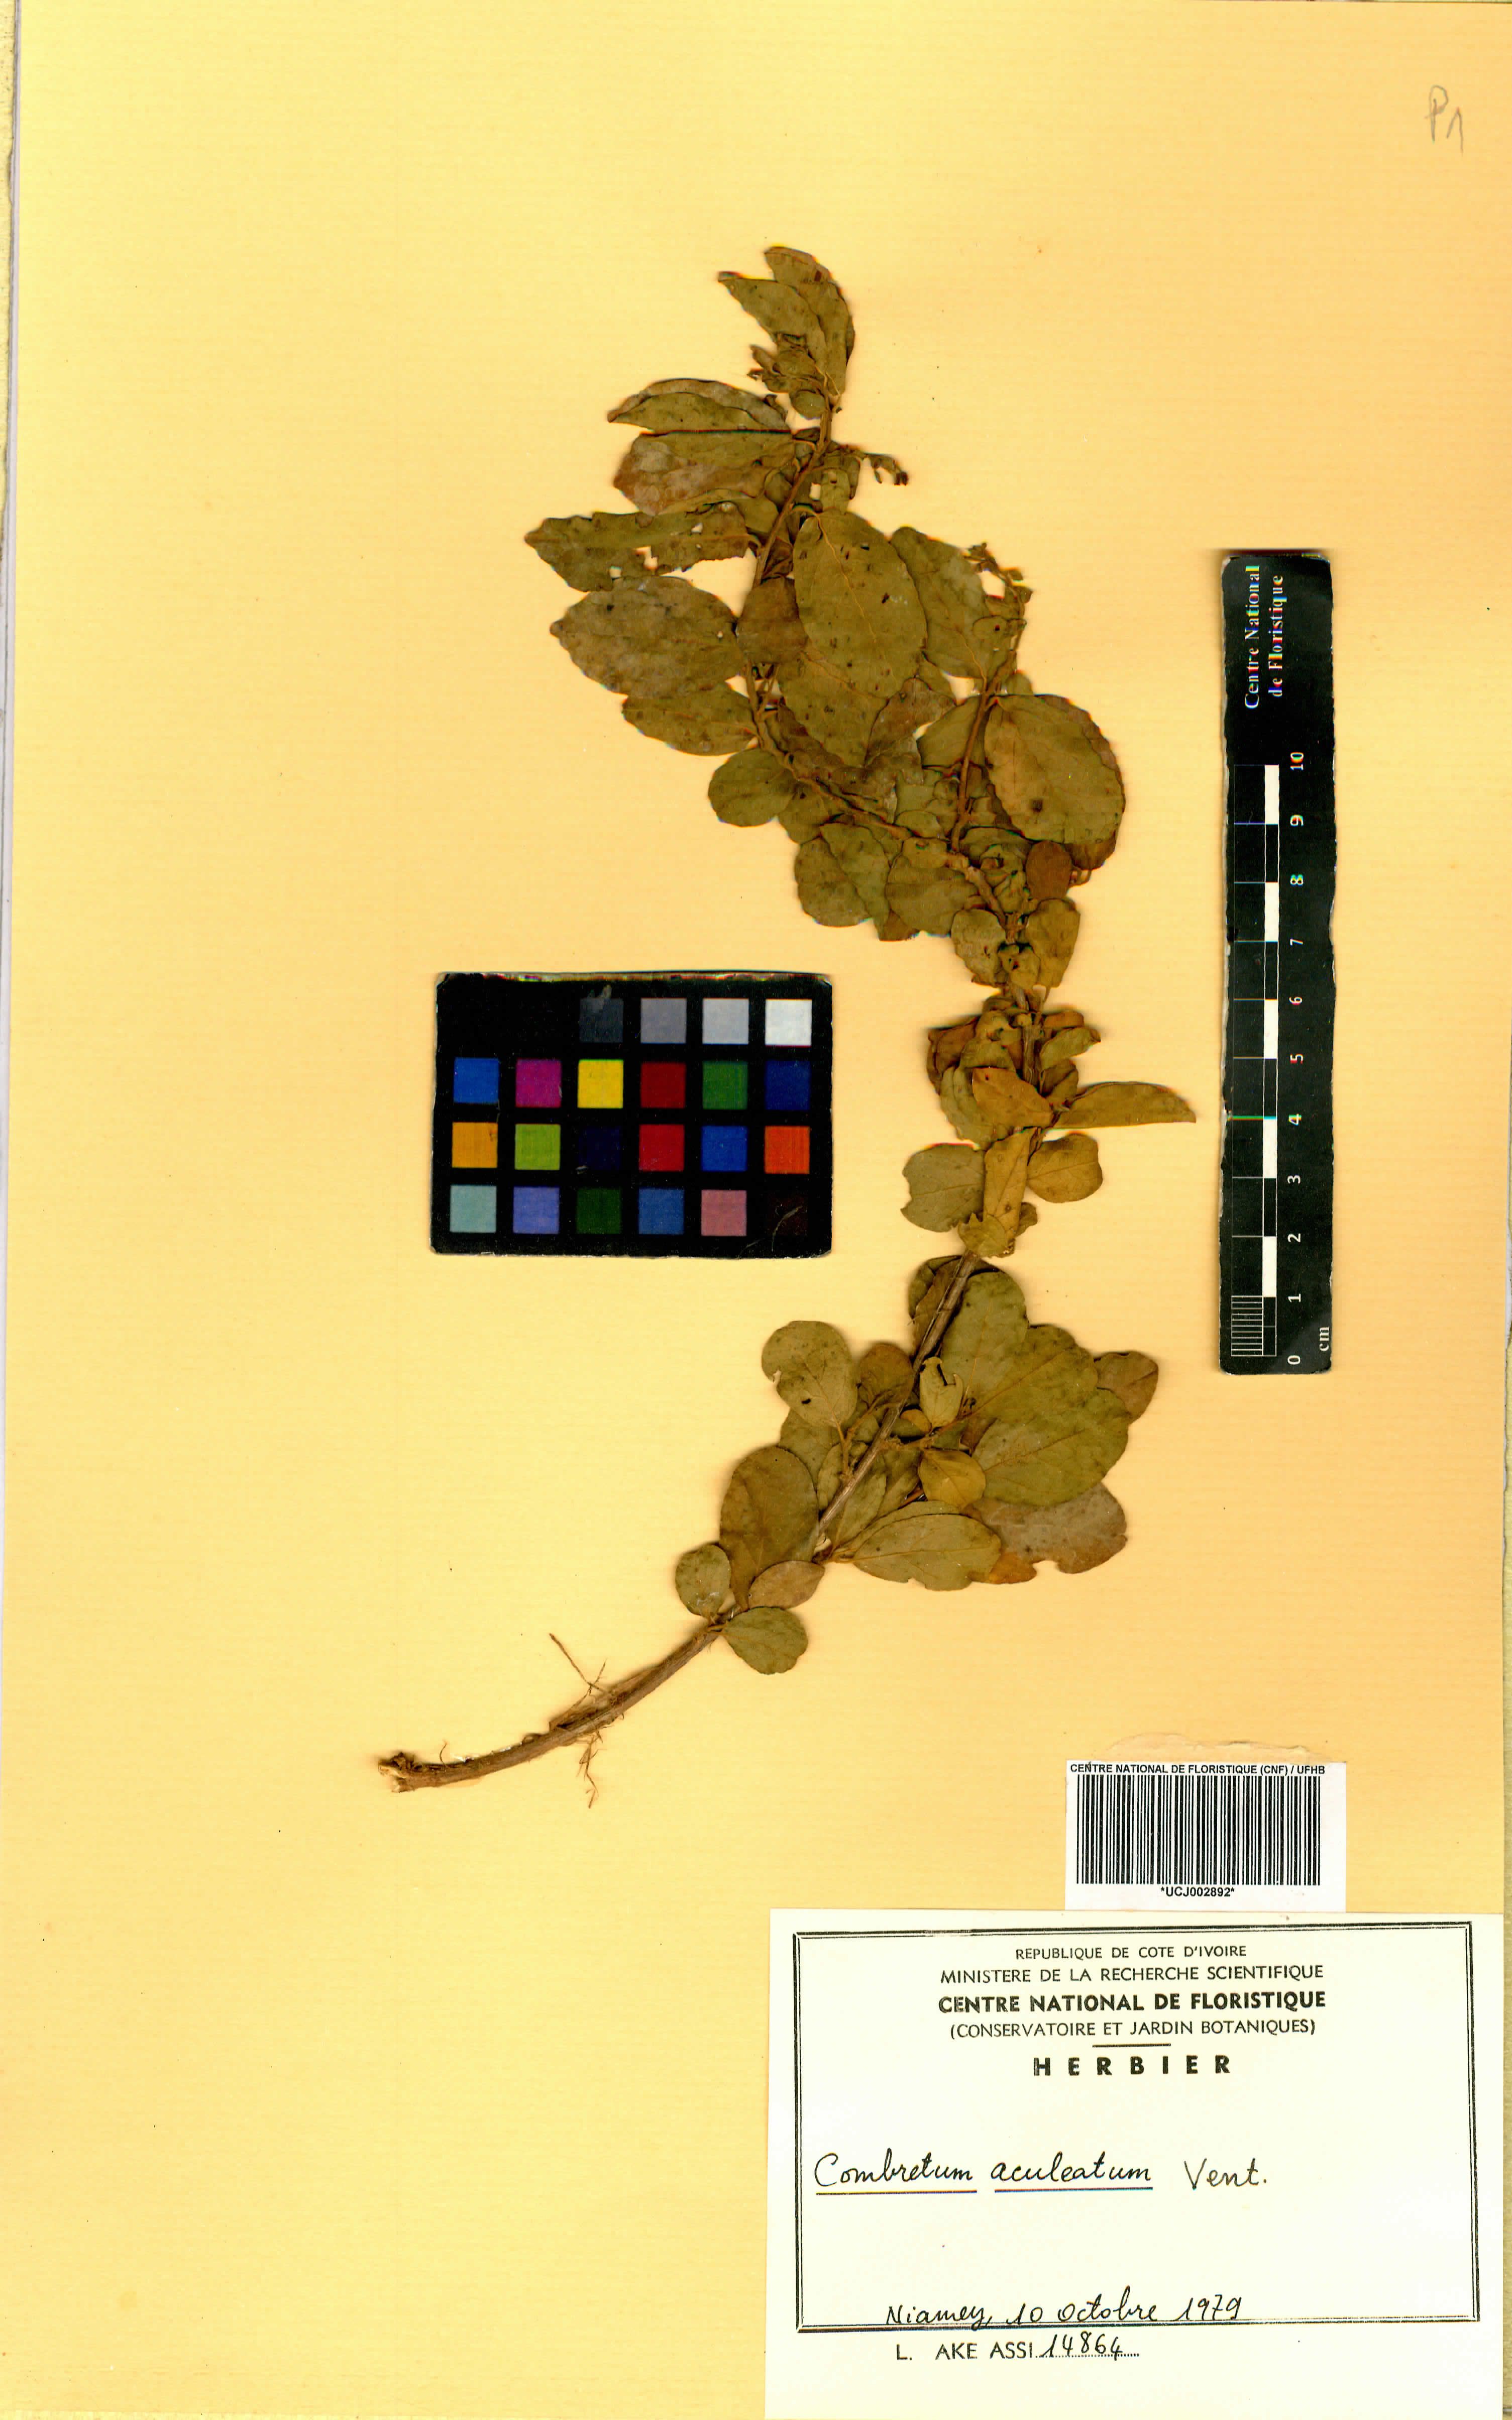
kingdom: Plantae
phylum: Tracheophyta
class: Magnoliopsida
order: Myrtales
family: Combretaceae
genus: Combretum
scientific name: Combretum aculeatum
